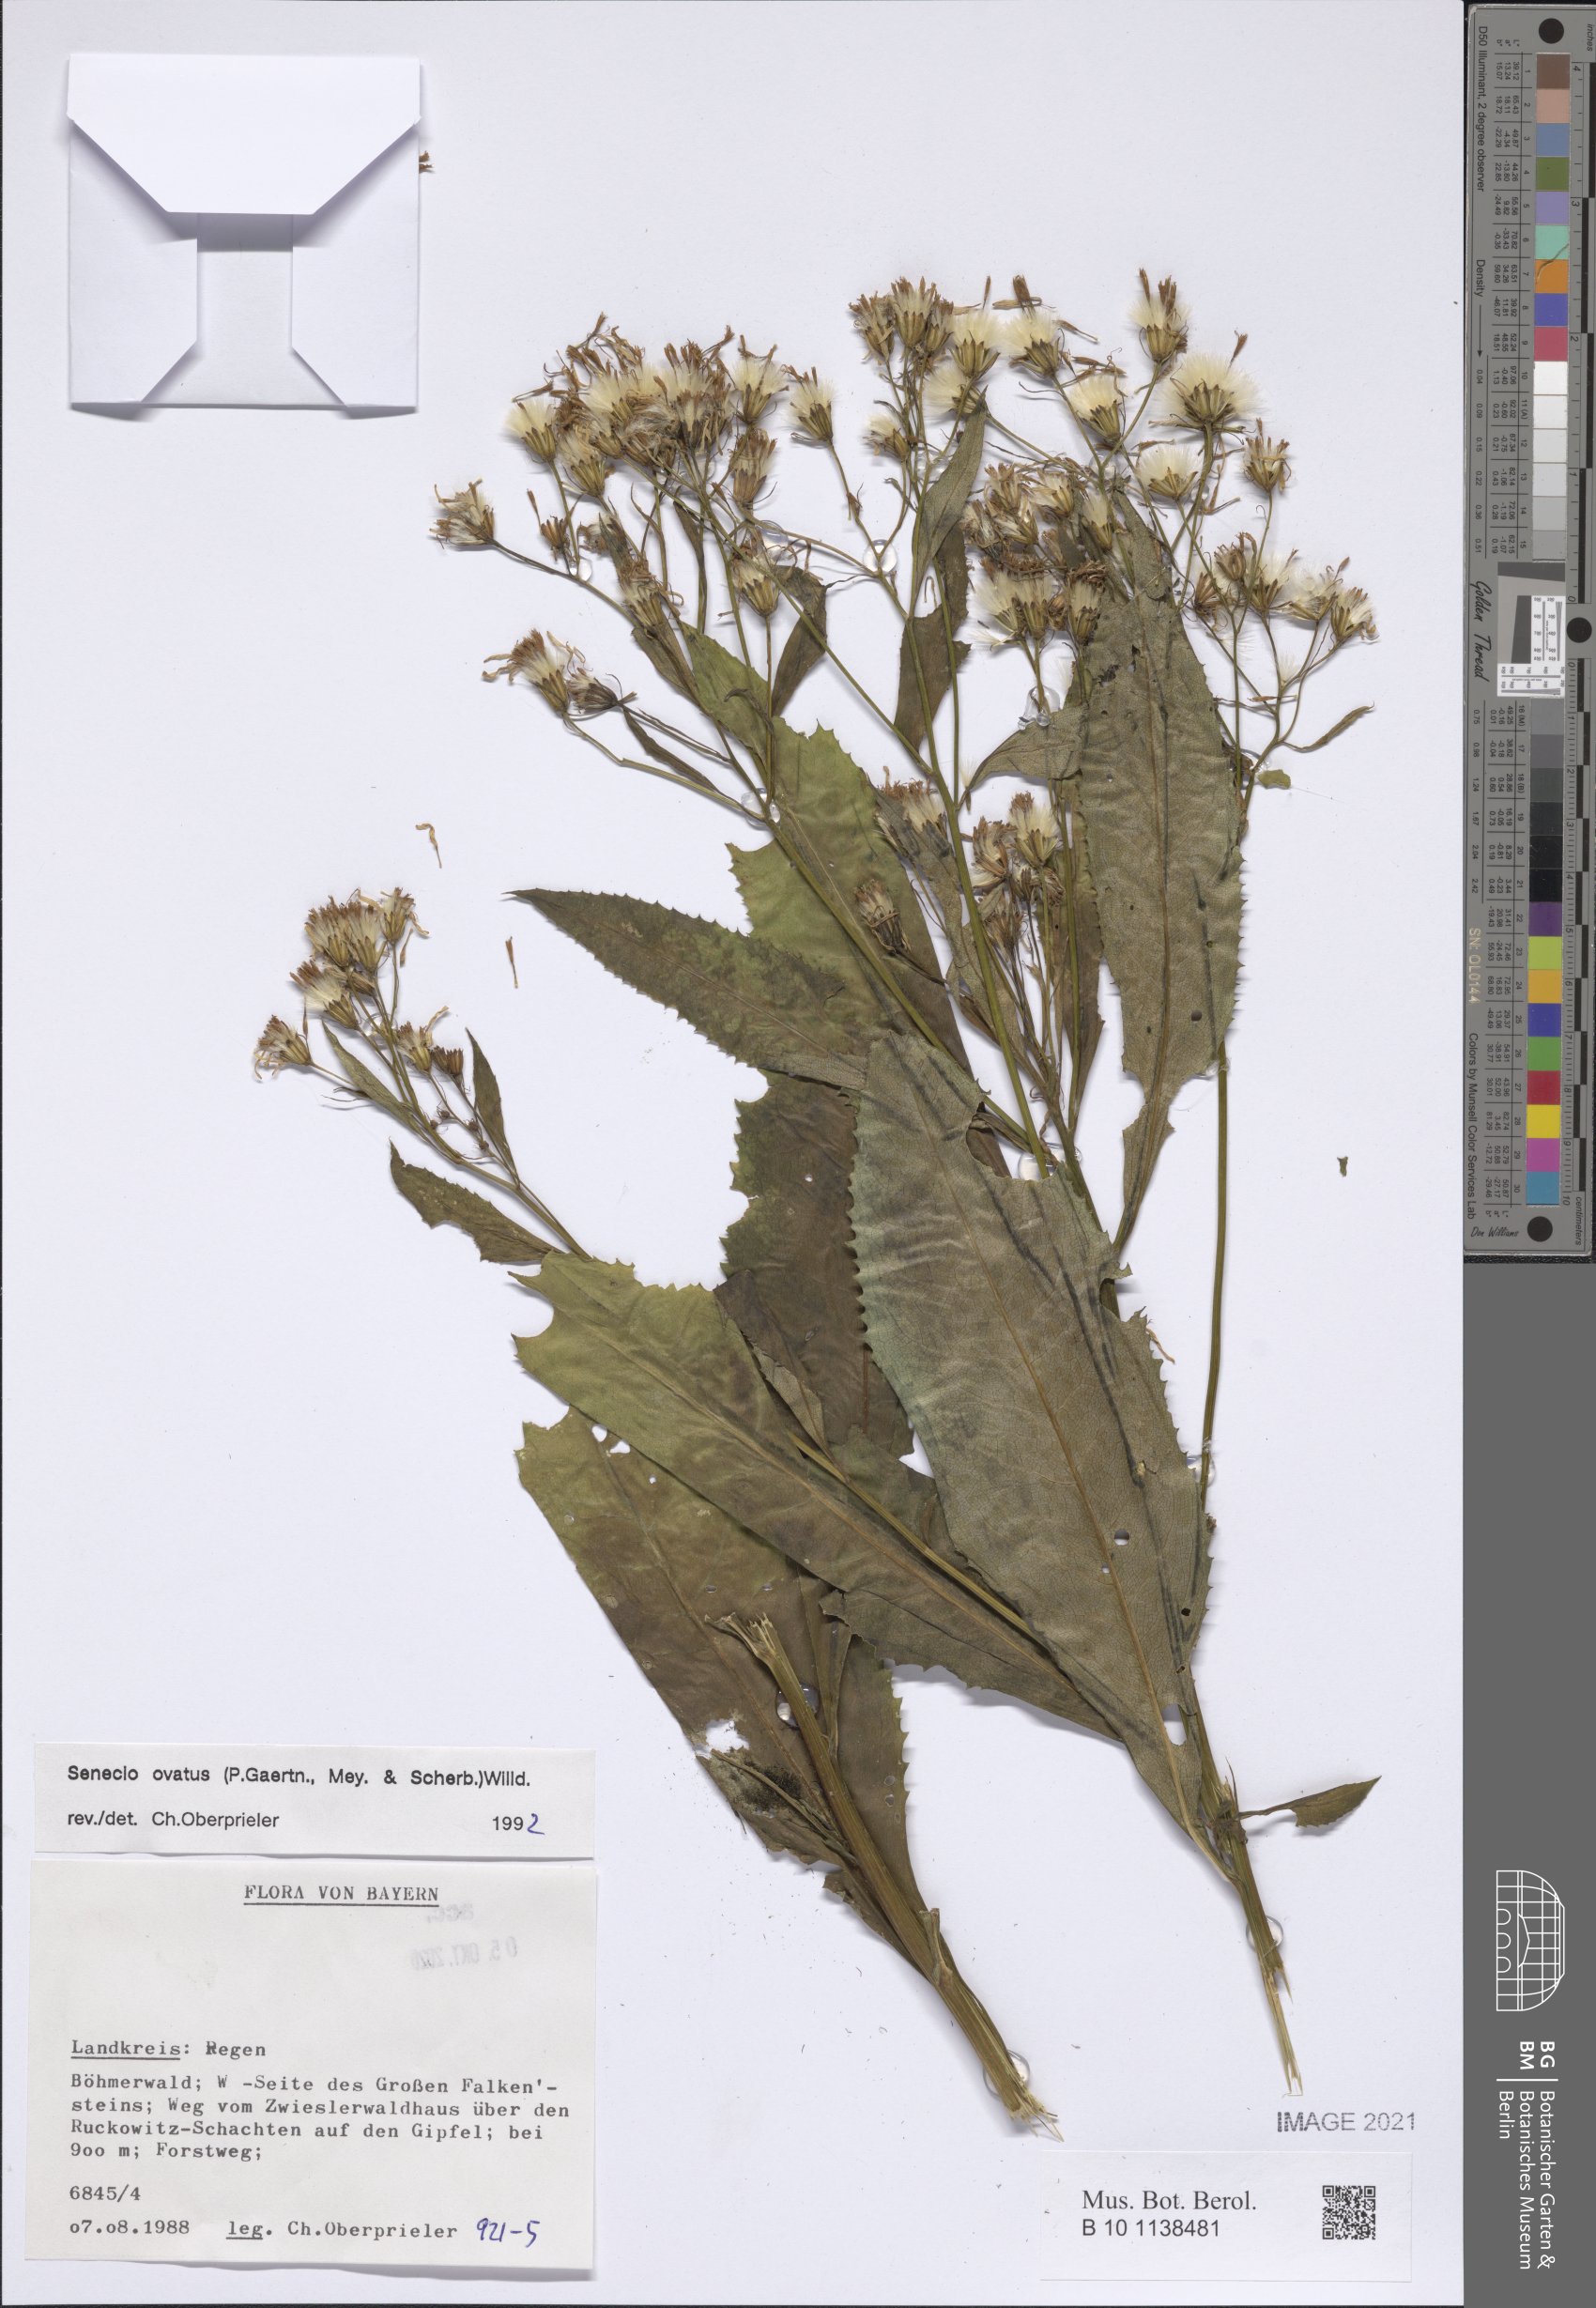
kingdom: Plantae
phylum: Tracheophyta
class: Magnoliopsida
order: Asterales
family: Asteraceae
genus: Senecio
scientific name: Senecio ovatus
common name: Wood ragwort
